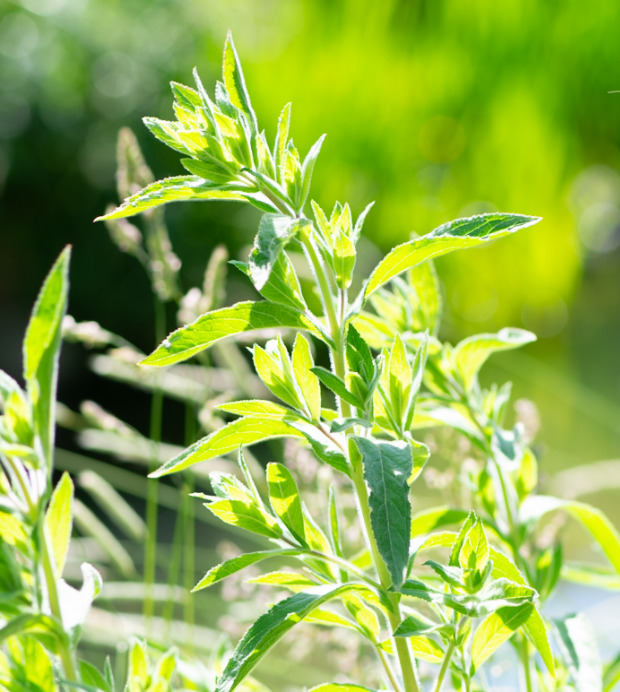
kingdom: Plantae
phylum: Tracheophyta
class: Magnoliopsida
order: Myrtales
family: Onagraceae
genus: Epilobium
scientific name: Epilobium hirsutum
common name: Lådden dueurt
